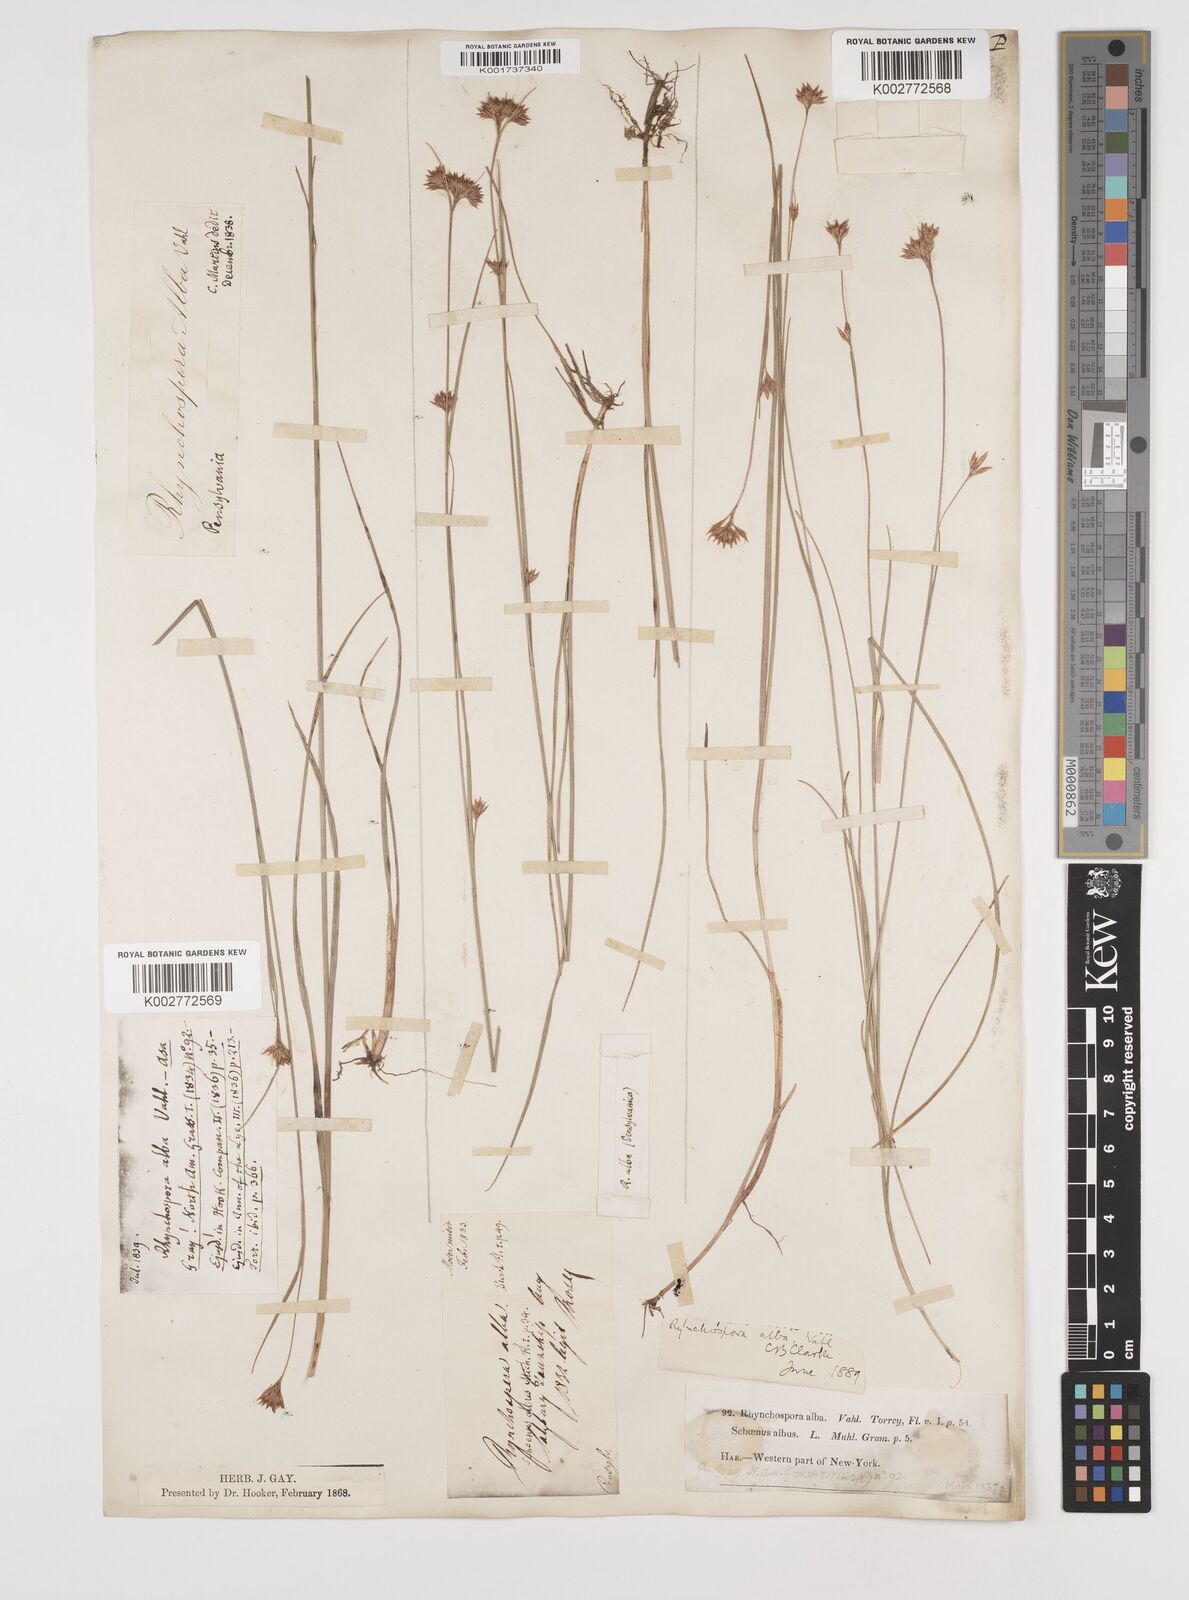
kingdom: Plantae
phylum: Tracheophyta
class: Liliopsida
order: Poales
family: Cyperaceae
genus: Rhynchospora
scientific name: Rhynchospora alba
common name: White beak-sedge
